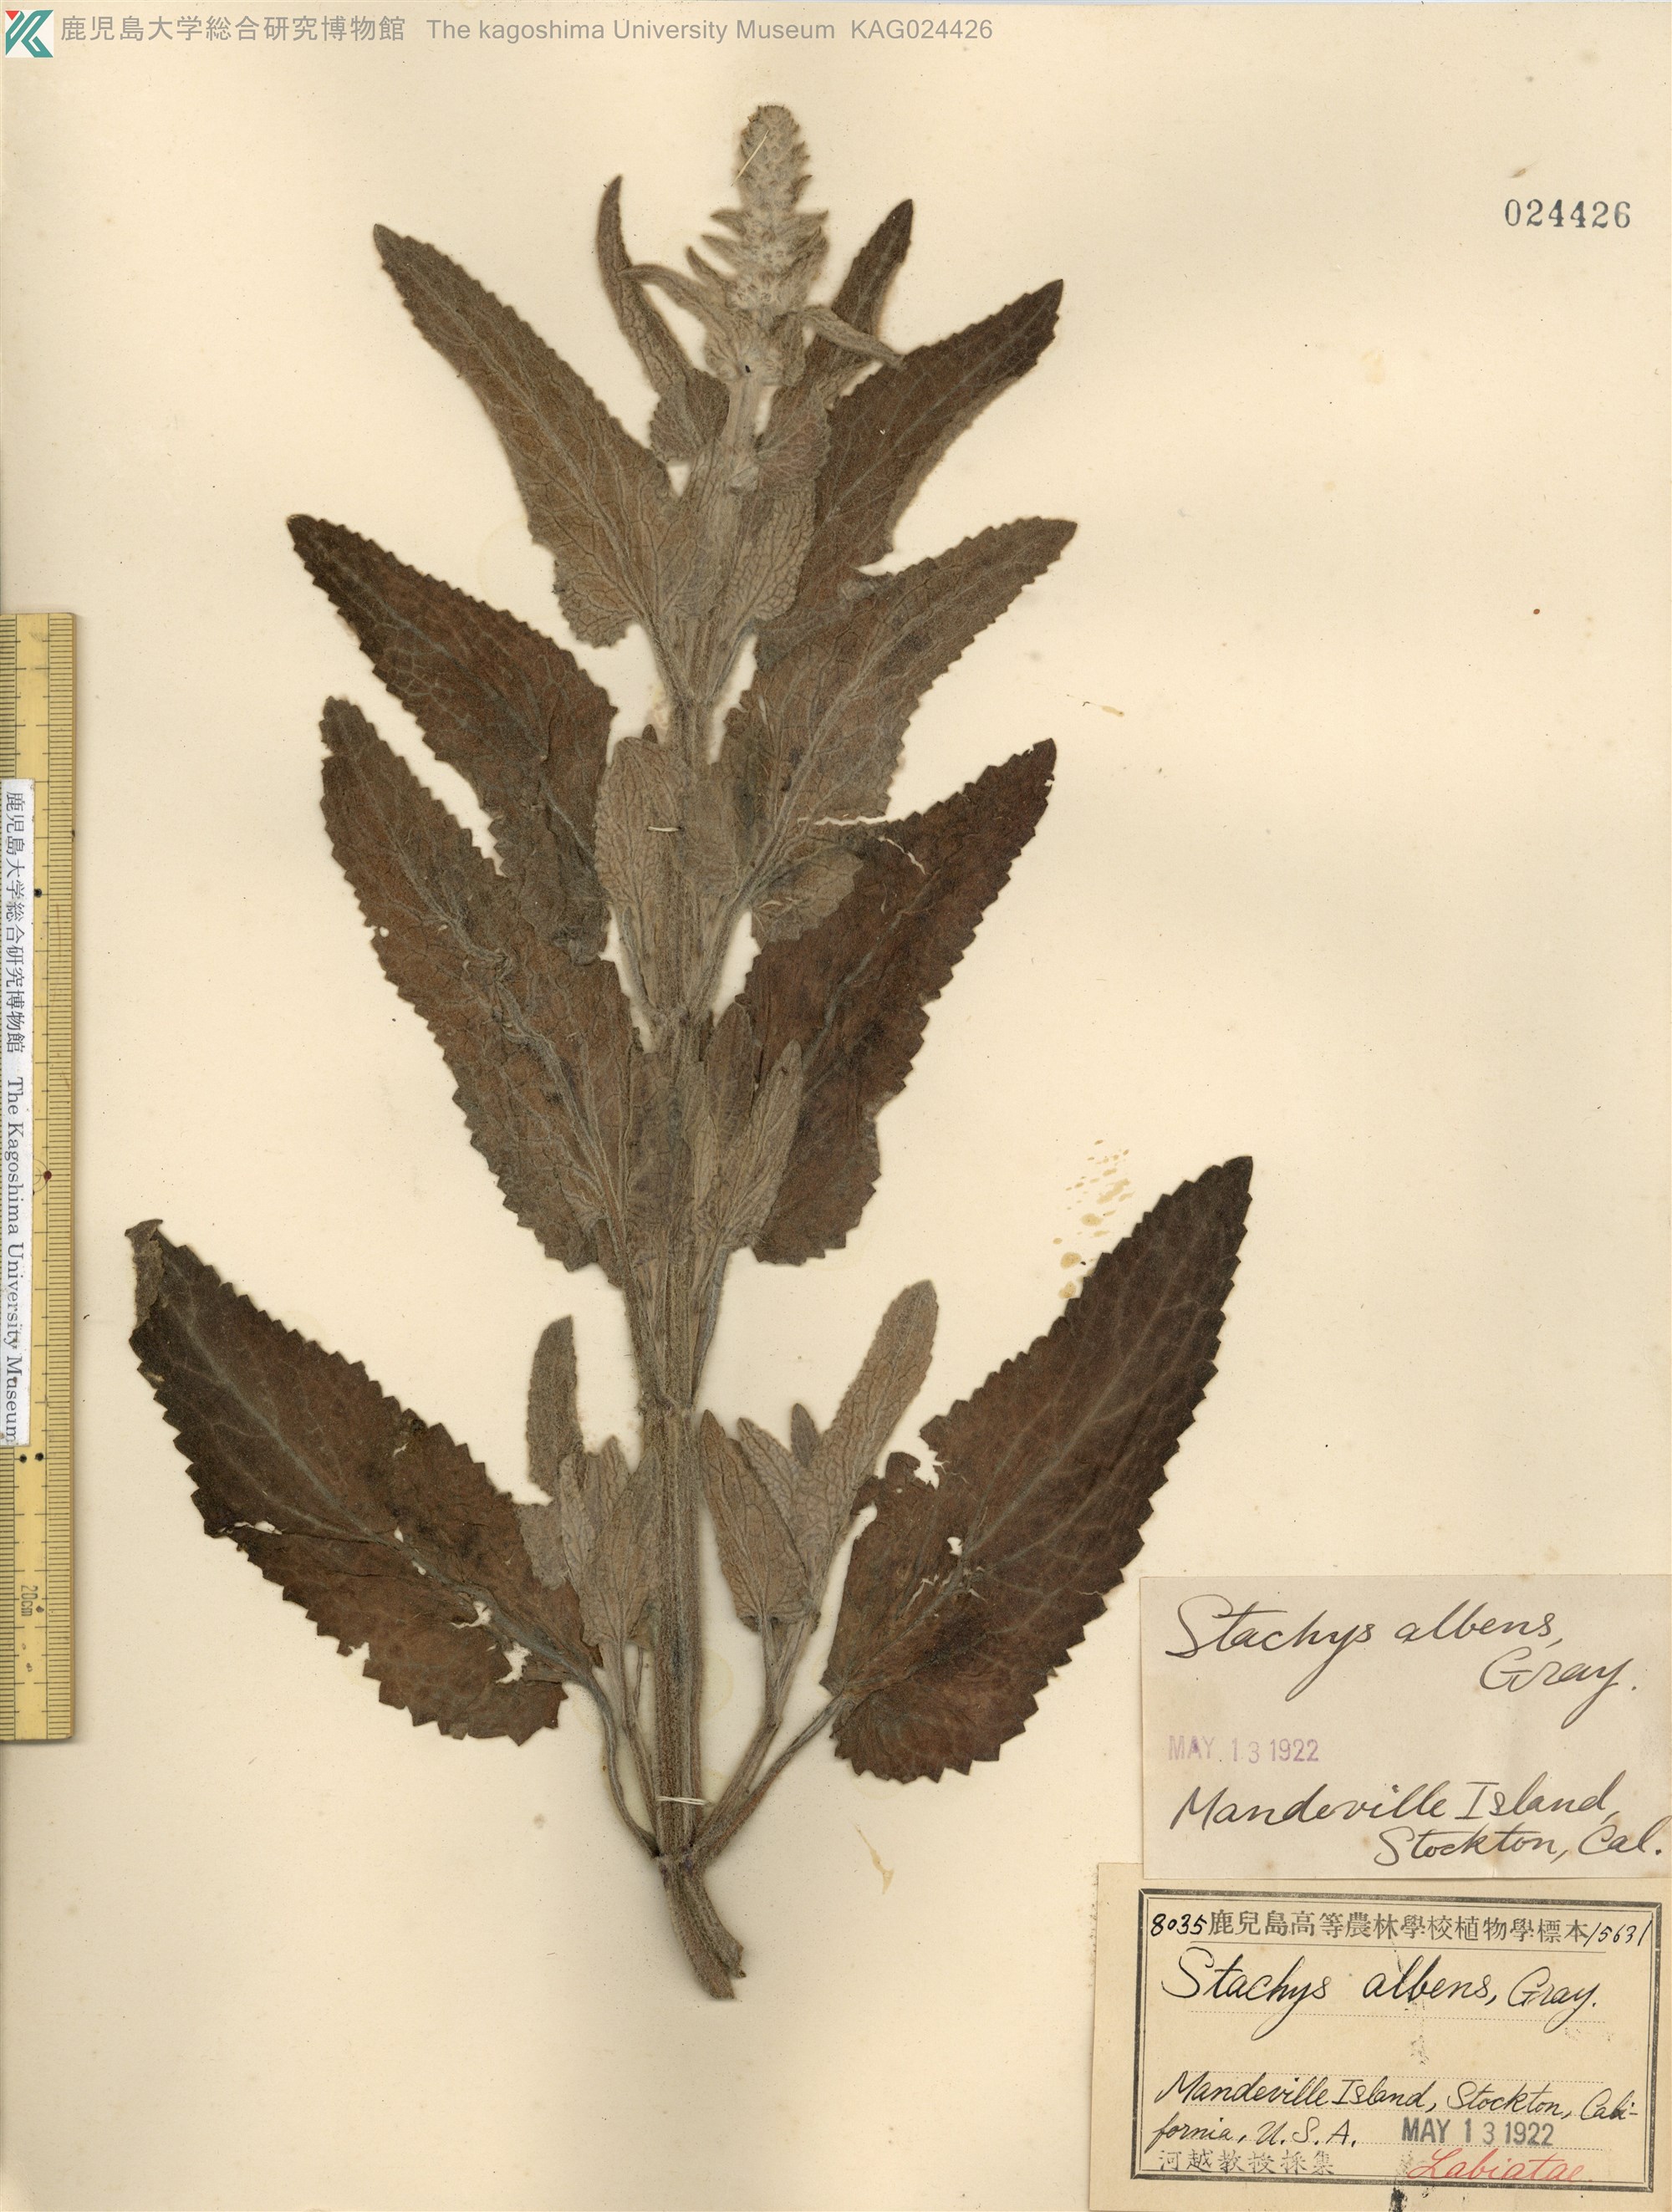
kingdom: Plantae
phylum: Tracheophyta
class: Magnoliopsida
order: Lamiales
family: Lamiaceae
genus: Stachys
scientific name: Stachys albens
